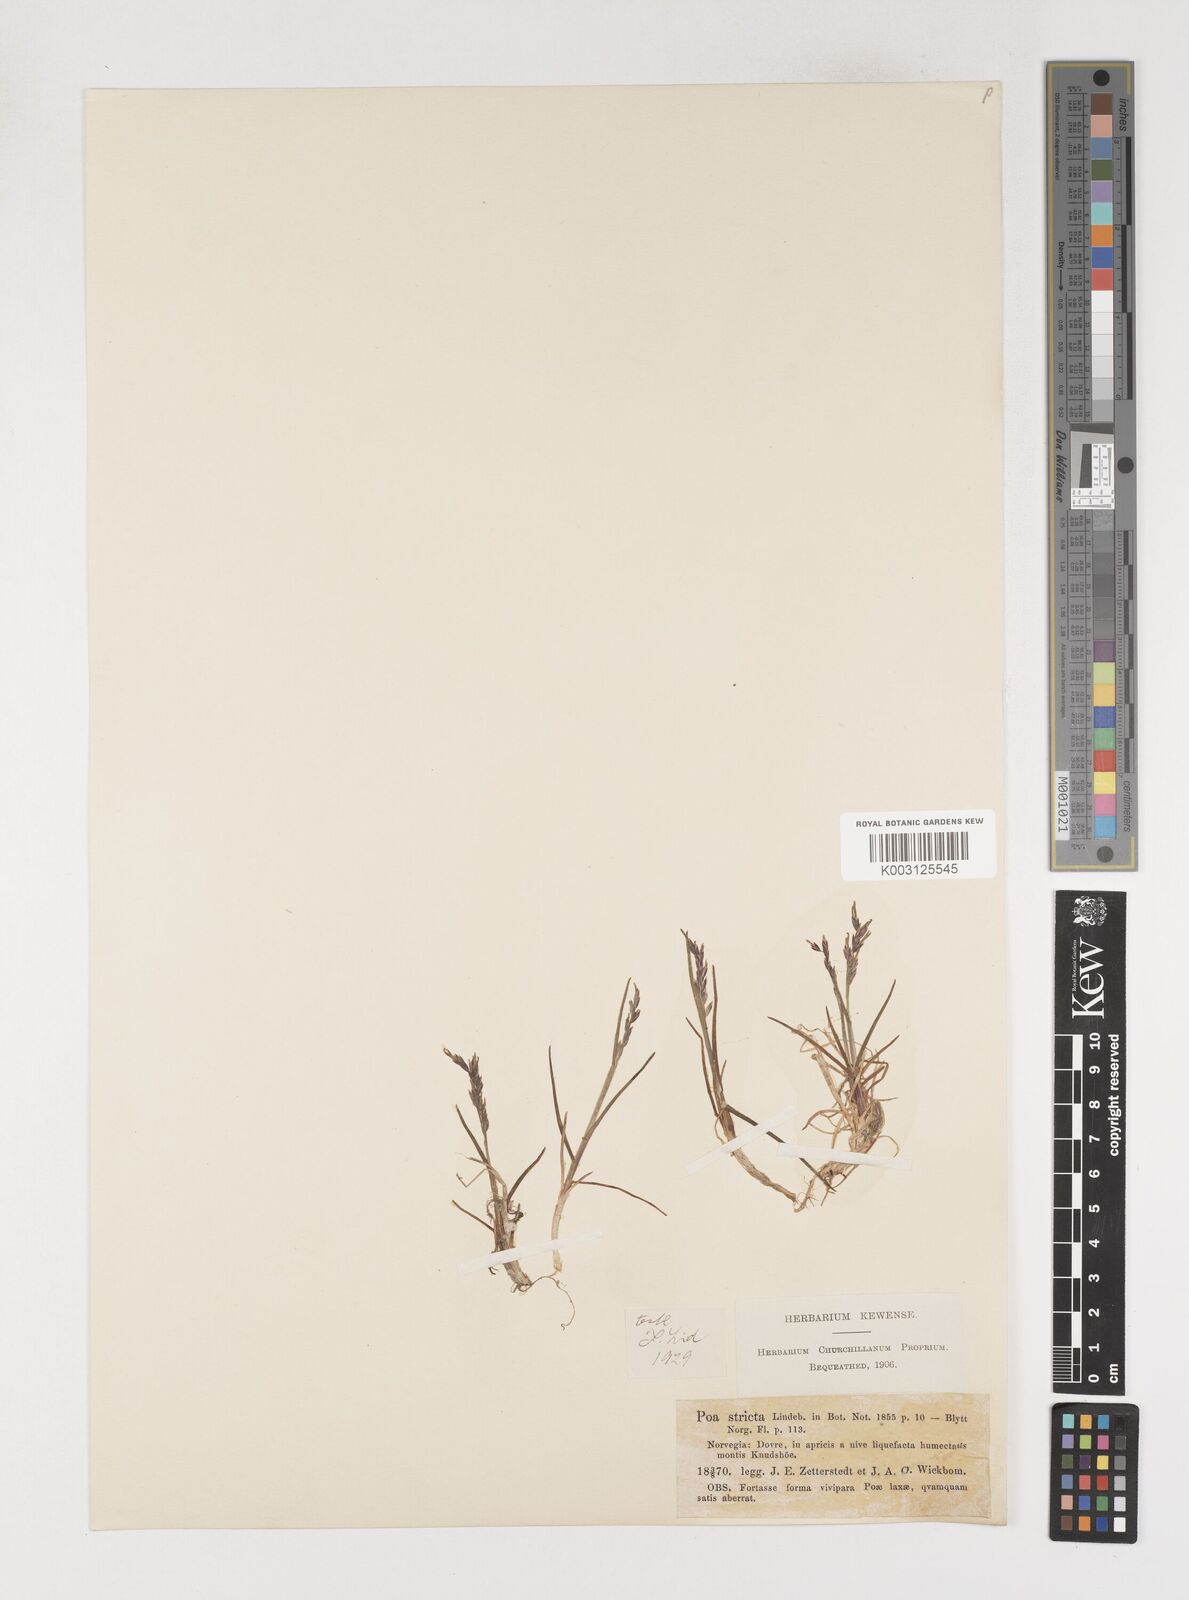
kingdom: Plantae
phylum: Tracheophyta
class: Liliopsida
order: Poales
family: Poaceae
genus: Poa
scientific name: Poa arctica
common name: Arctic bluegrass
